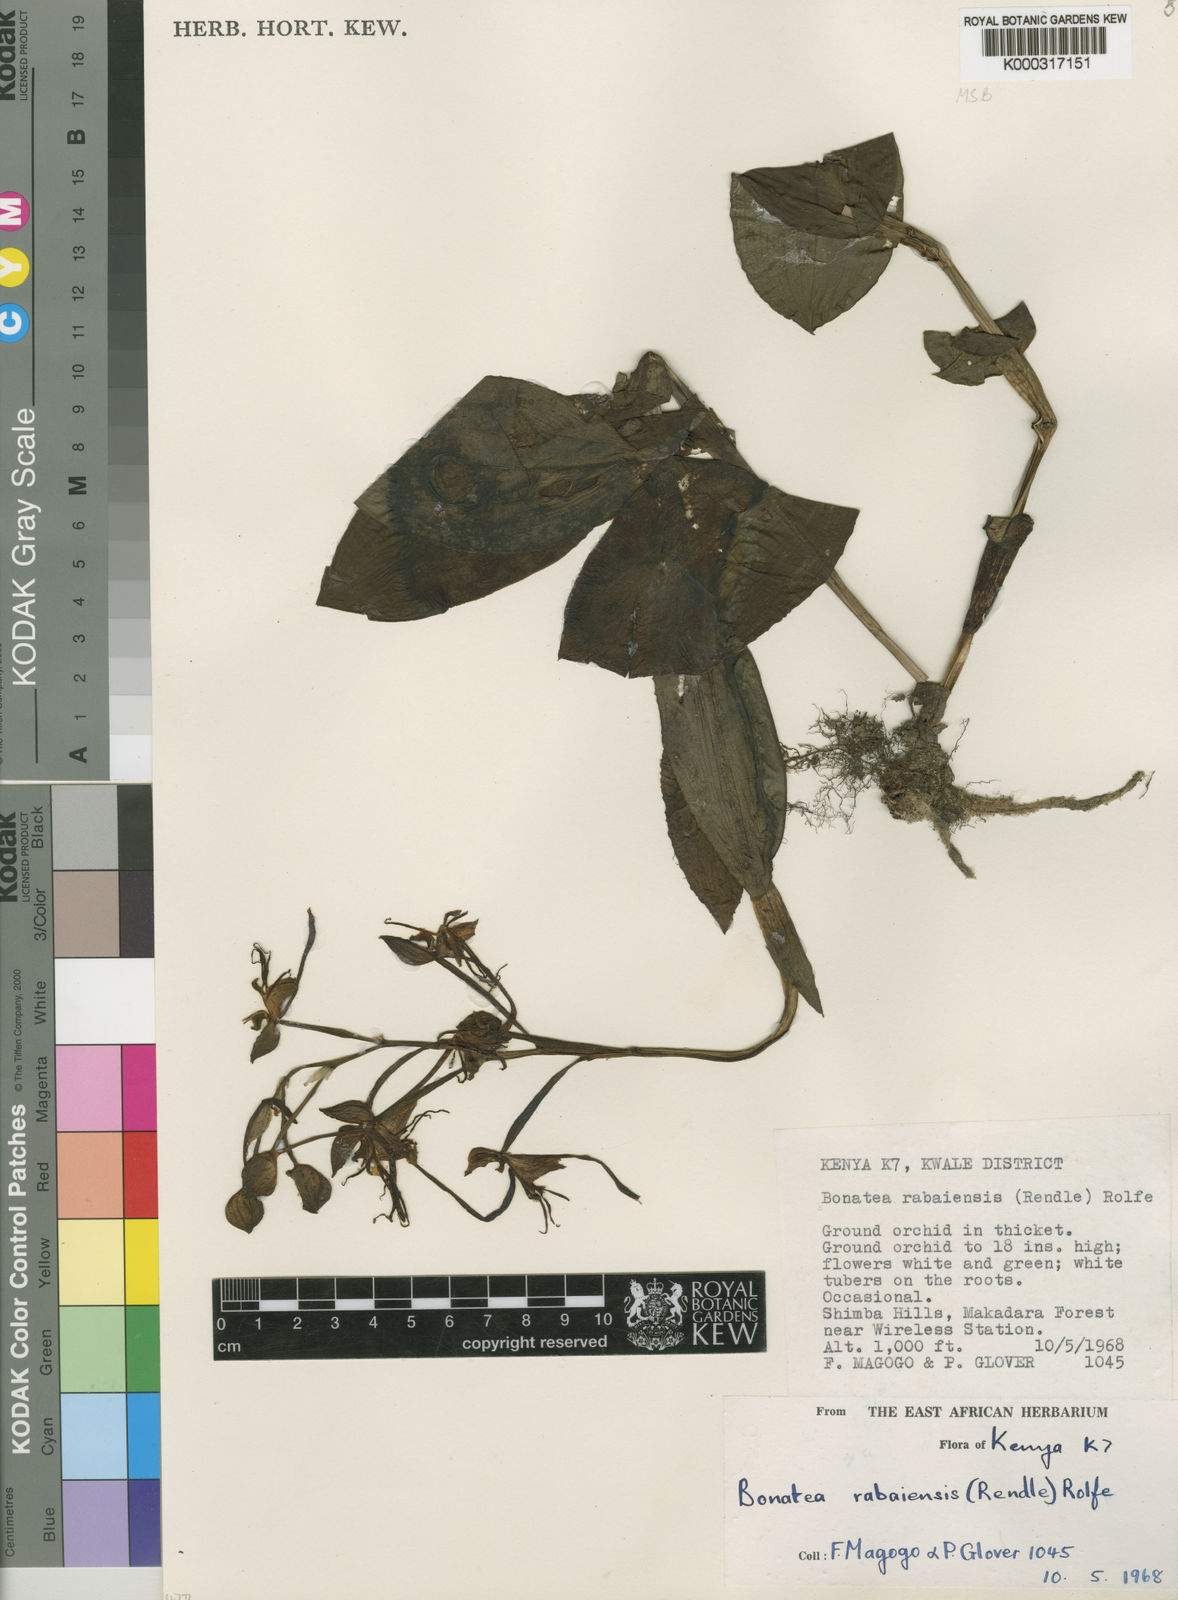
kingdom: Plantae
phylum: Tracheophyta
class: Liliopsida
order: Asparagales
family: Orchidaceae
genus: Bonatea
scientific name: Bonatea rabaiensis
